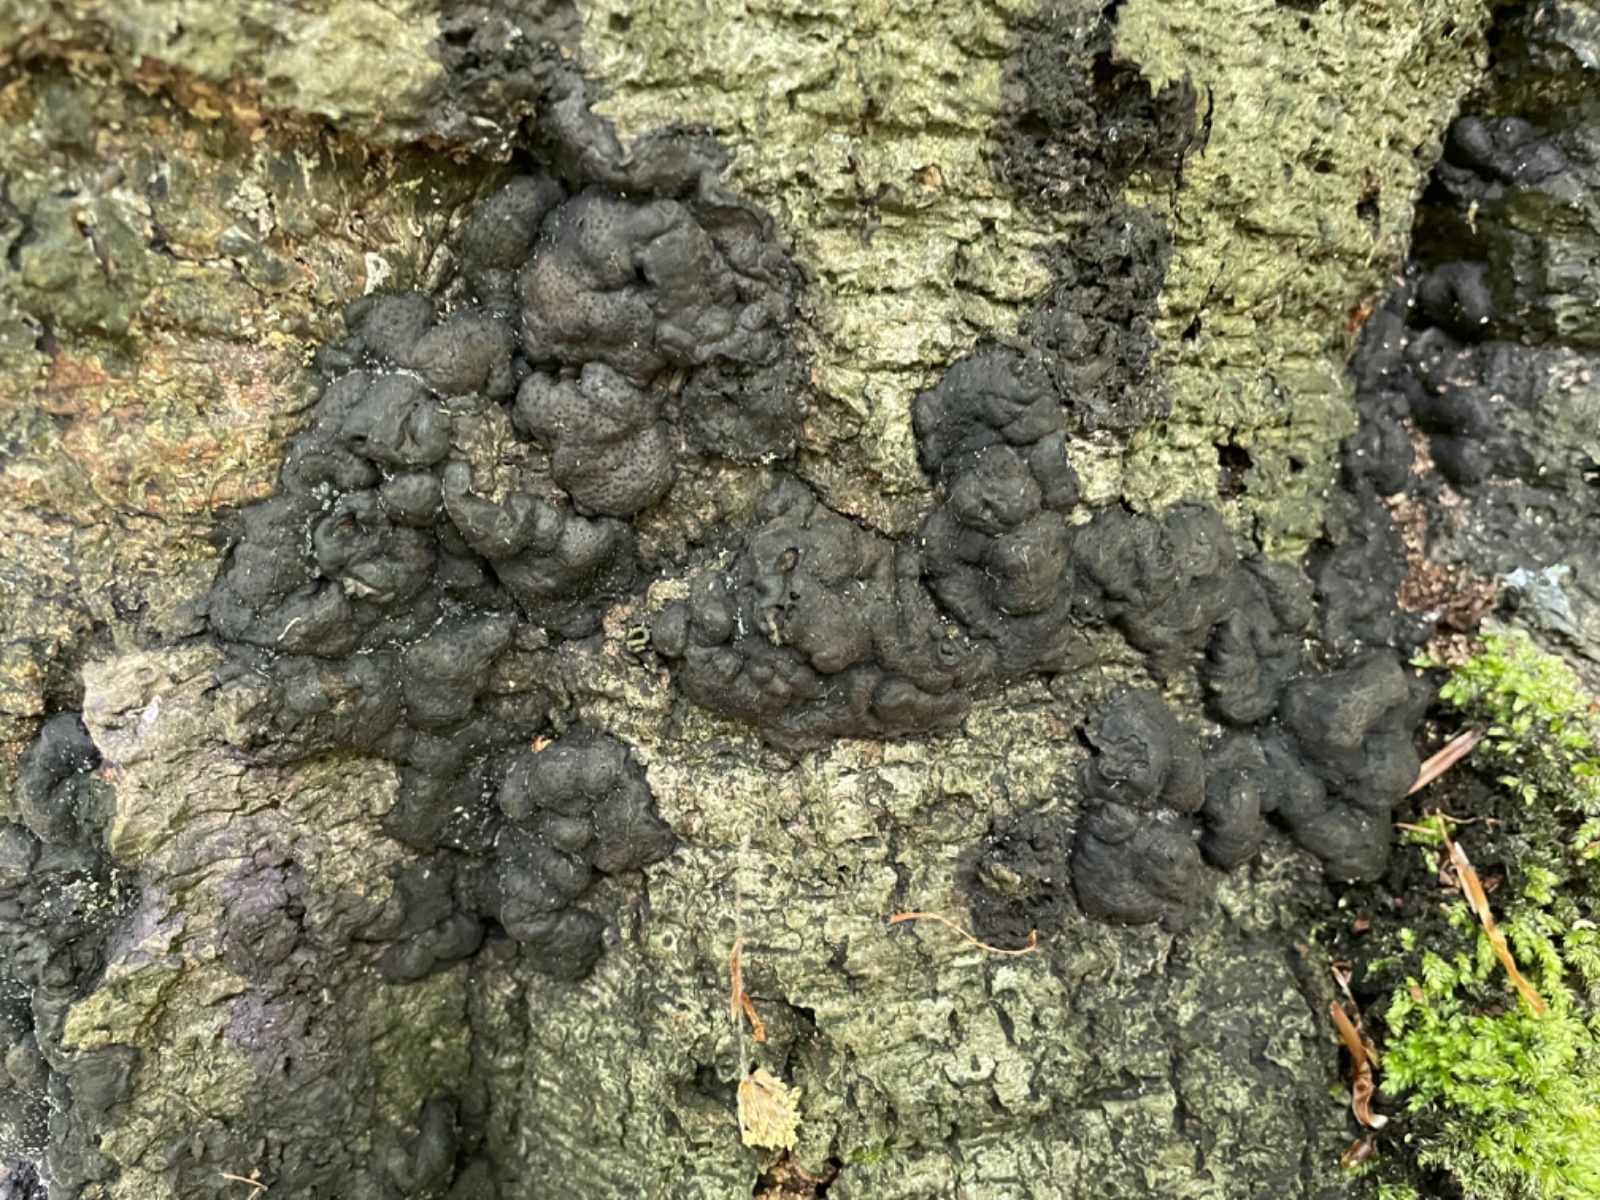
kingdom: Fungi
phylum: Ascomycota
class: Sordariomycetes
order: Xylariales
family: Xylariaceae
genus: Kretzschmaria
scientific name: Kretzschmaria deusta
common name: stor kulsvamp
